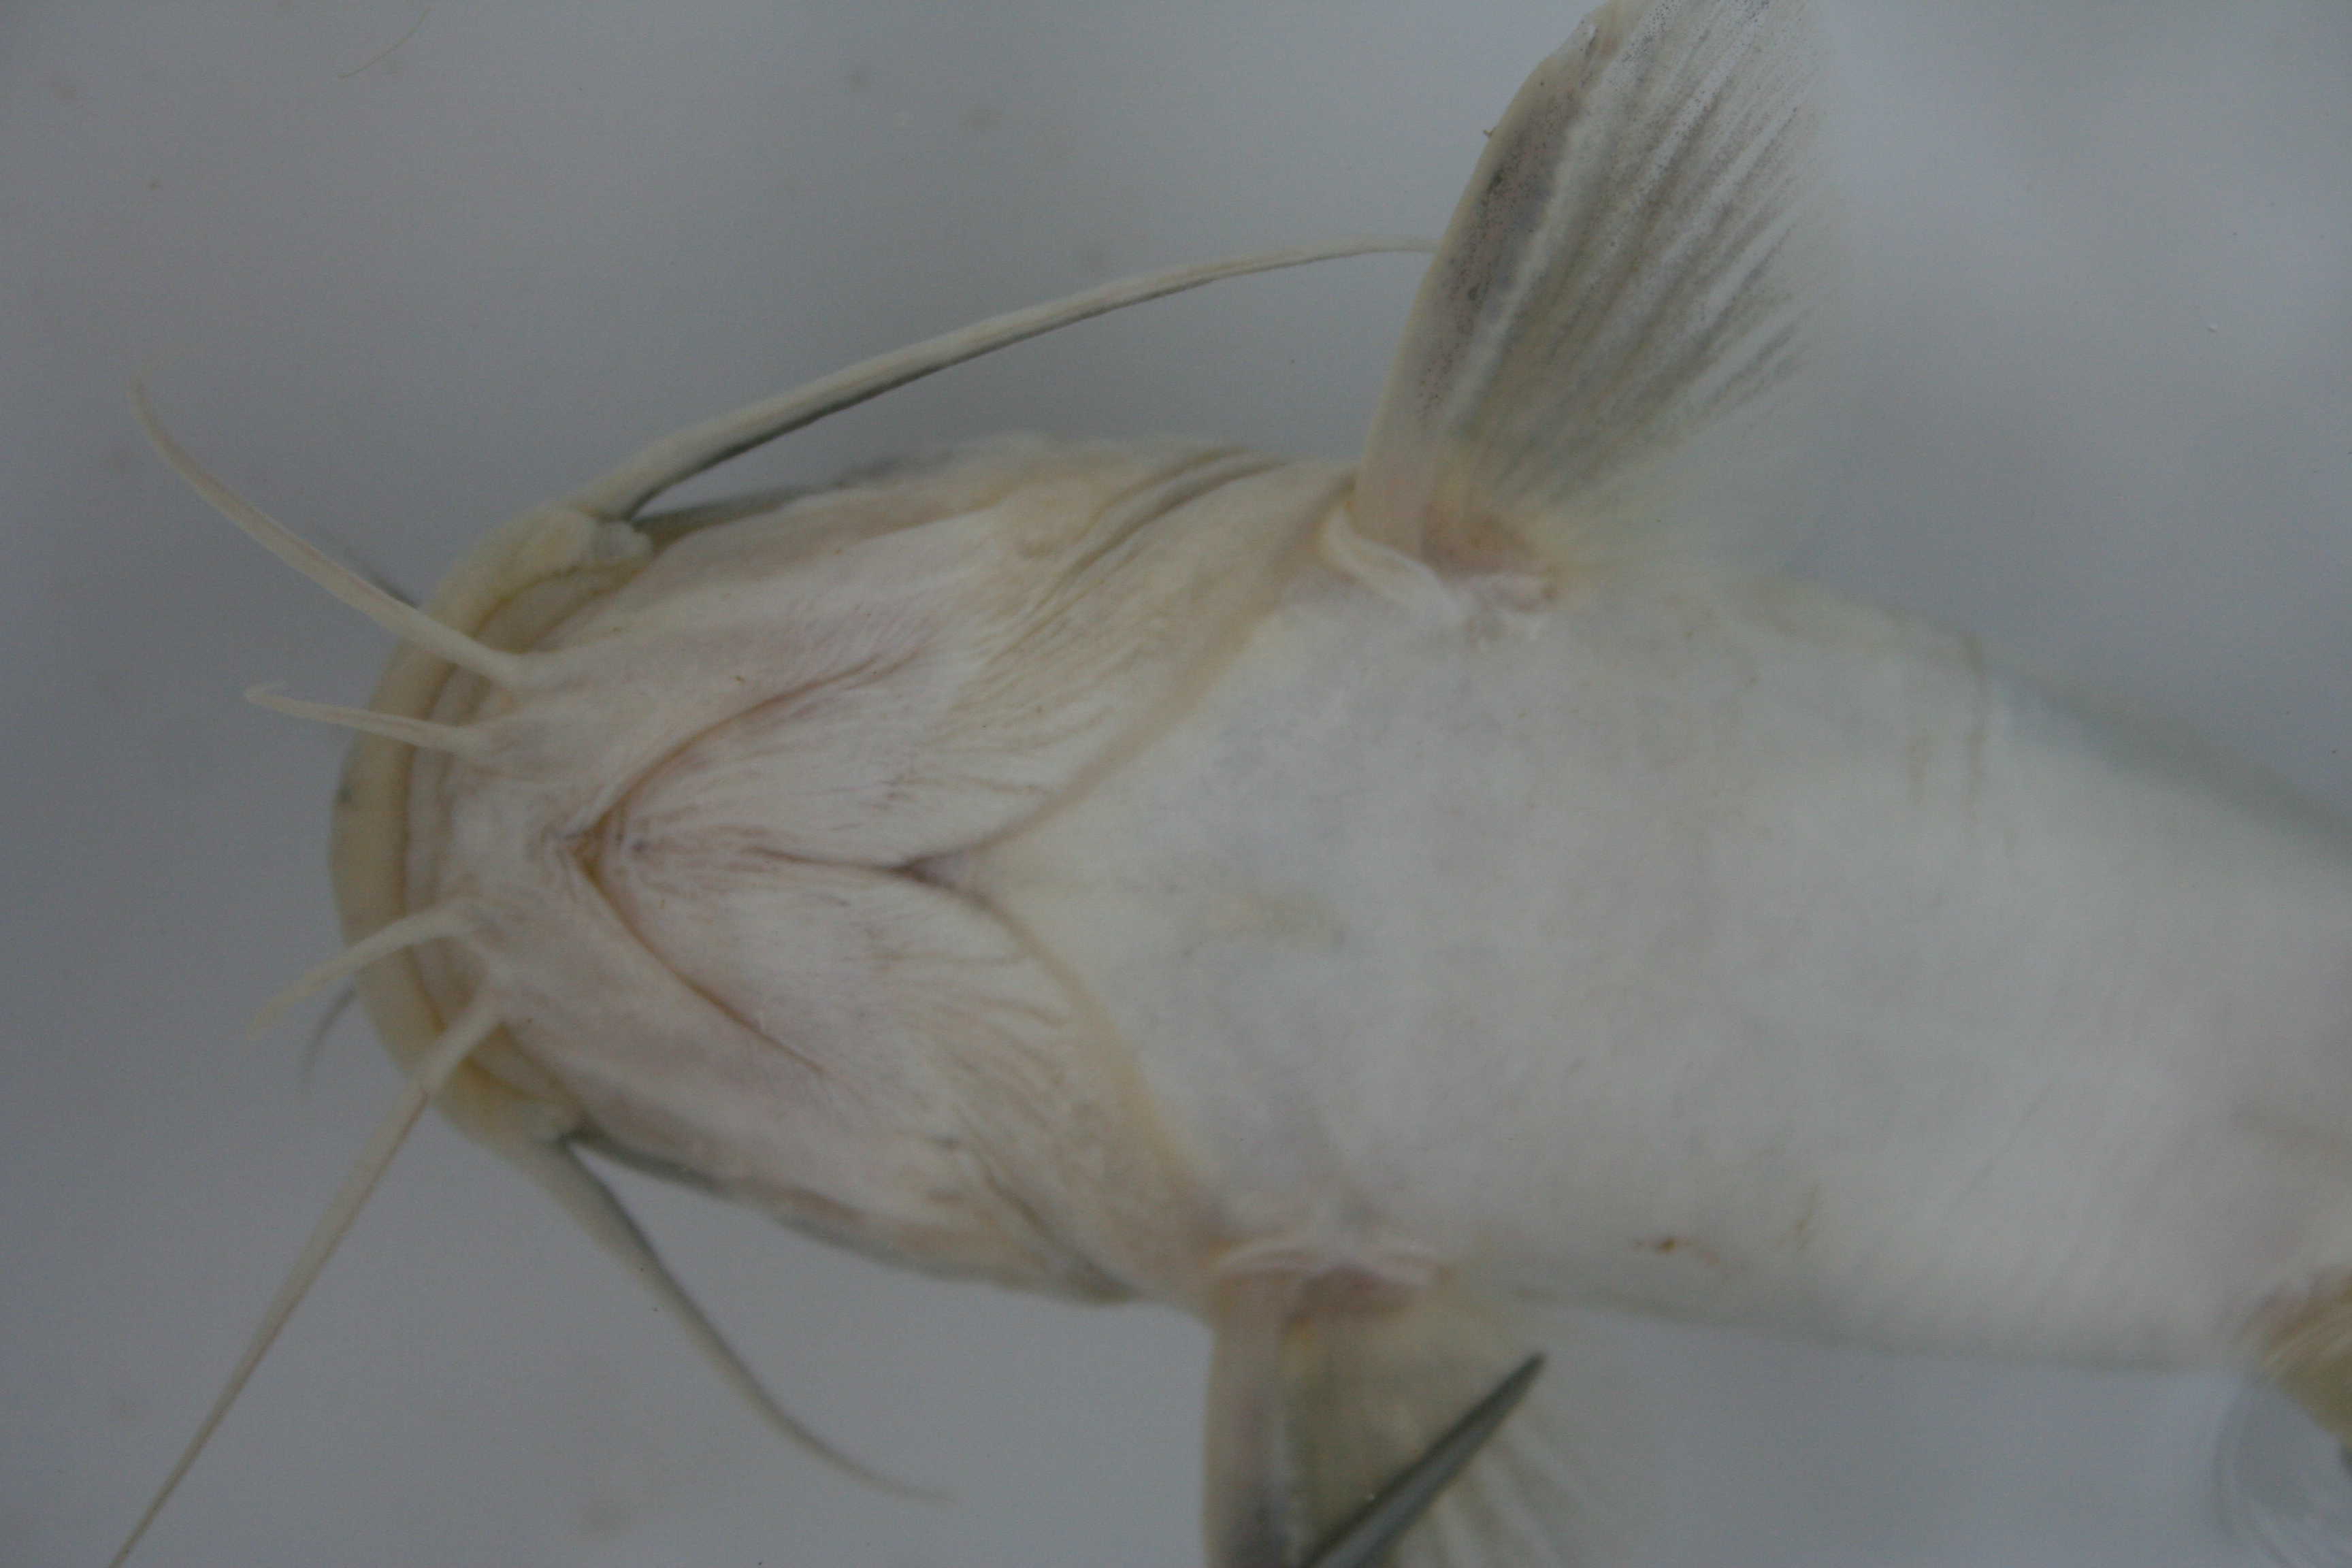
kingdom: Animalia
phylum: Chordata
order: Siluriformes
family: Claroteidae
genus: Chrysichthys
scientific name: Chrysichthys bocagii
